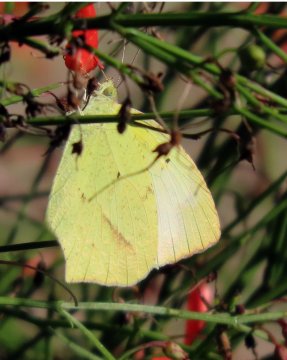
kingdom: Animalia
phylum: Arthropoda
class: Insecta
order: Lepidoptera
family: Pieridae
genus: Eurema
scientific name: Eurema mexicana
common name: Mexican Yellow
